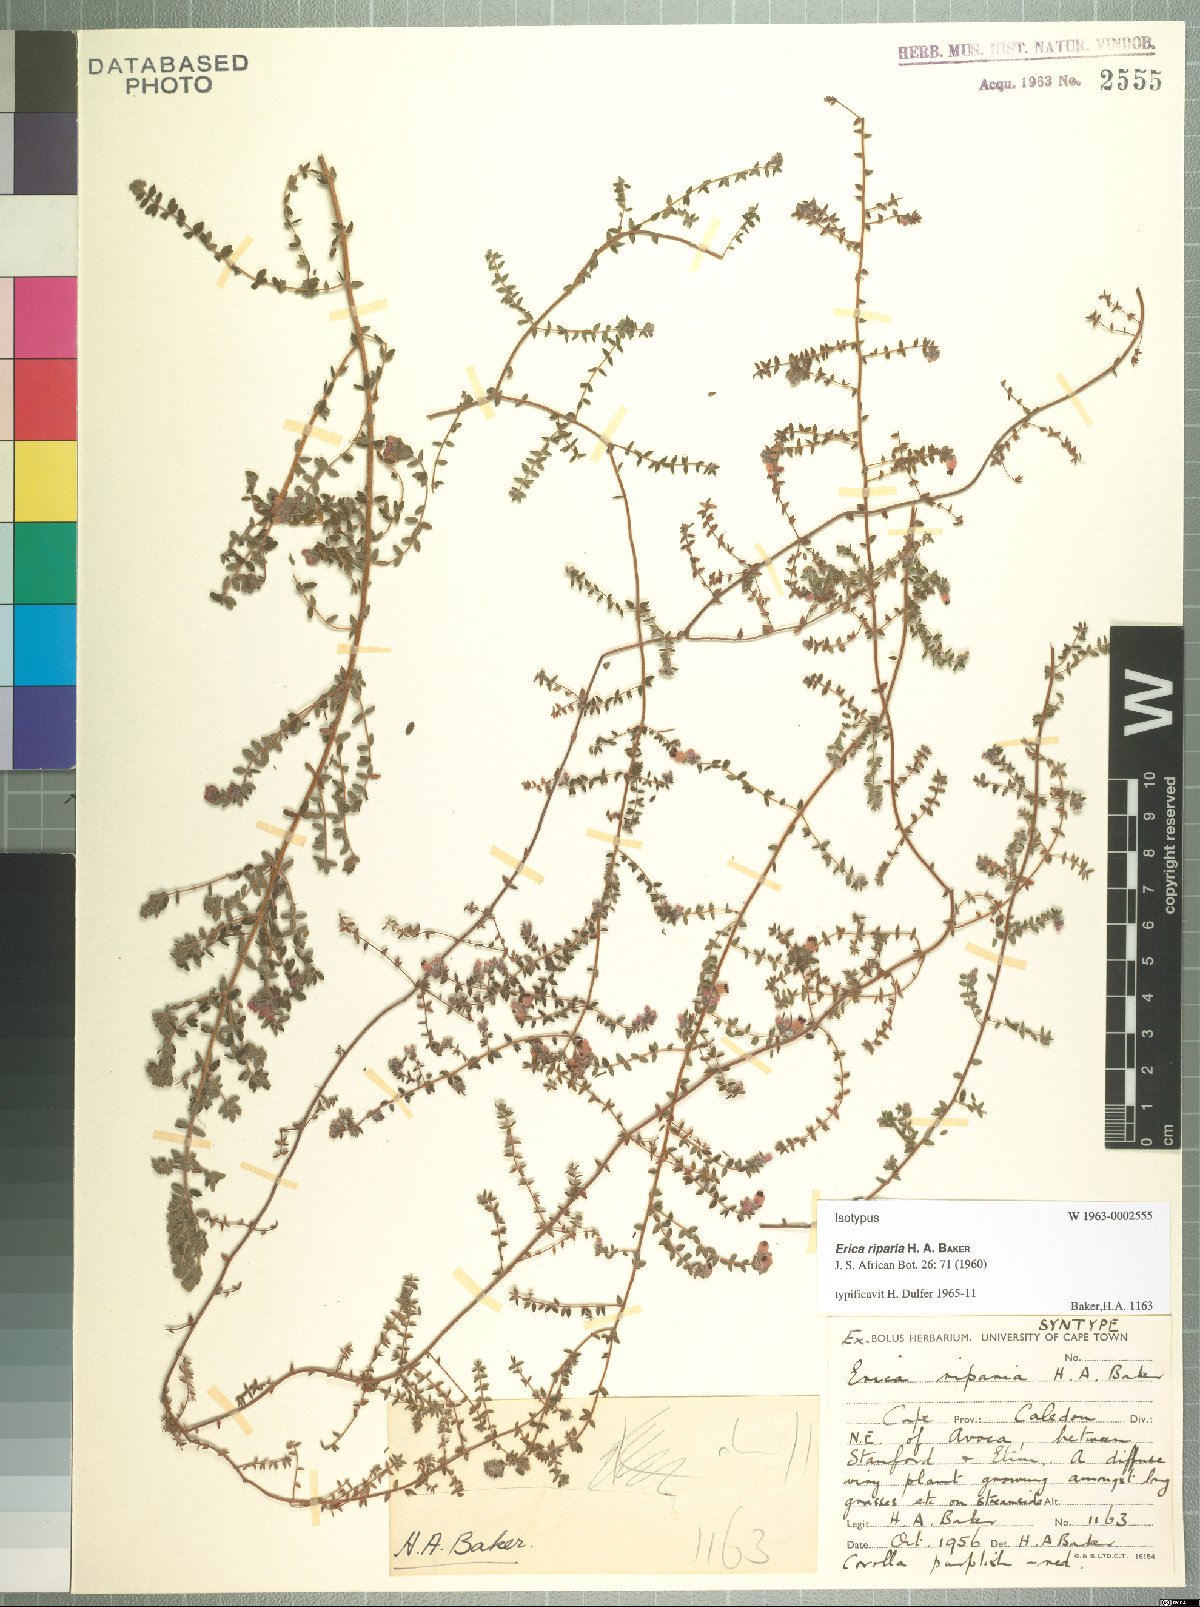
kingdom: Plantae
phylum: Tracheophyta
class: Magnoliopsida
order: Ericales
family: Ericaceae
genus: Erica
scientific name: Erica riparia
